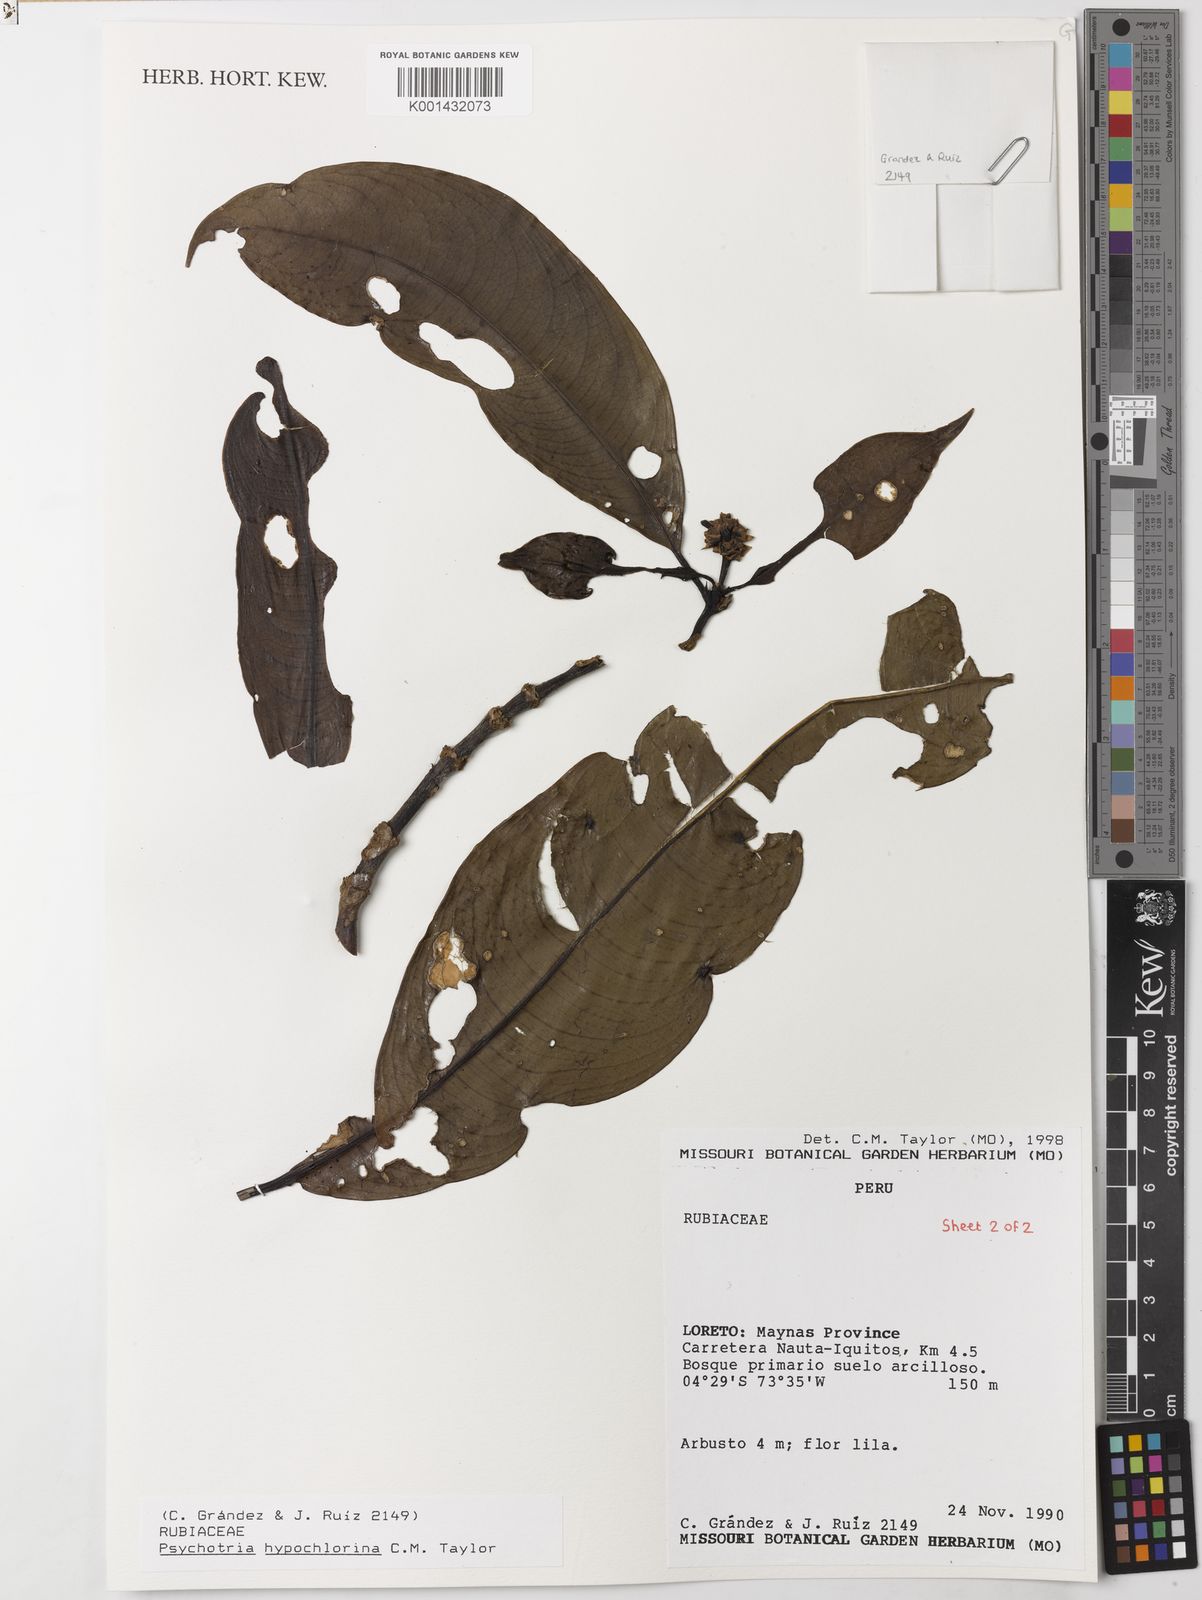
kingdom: Plantae
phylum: Tracheophyta
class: Magnoliopsida
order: Gentianales
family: Rubiaceae
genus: Palicourea
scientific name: Palicourea hypochlorina
